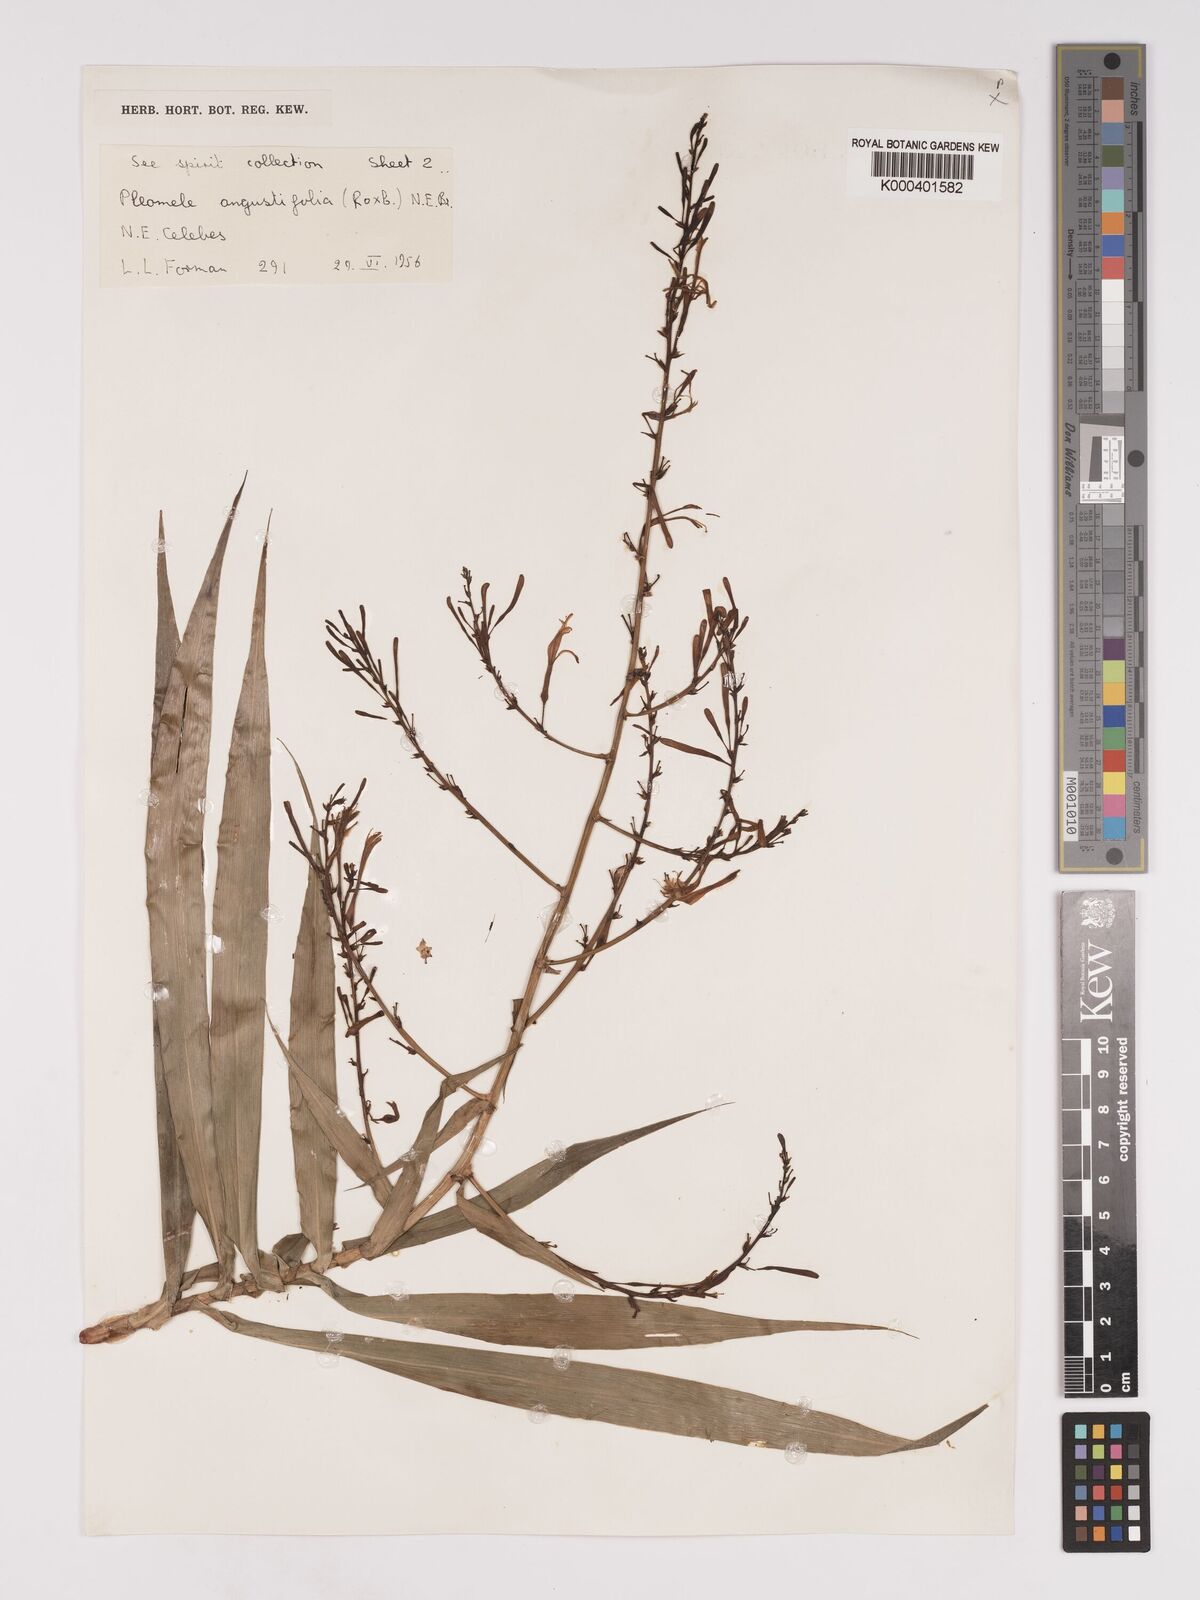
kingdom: Plantae
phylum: Tracheophyta
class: Liliopsida
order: Asparagales
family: Asparagaceae
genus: Dracaena
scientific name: Dracaena angustifolia
